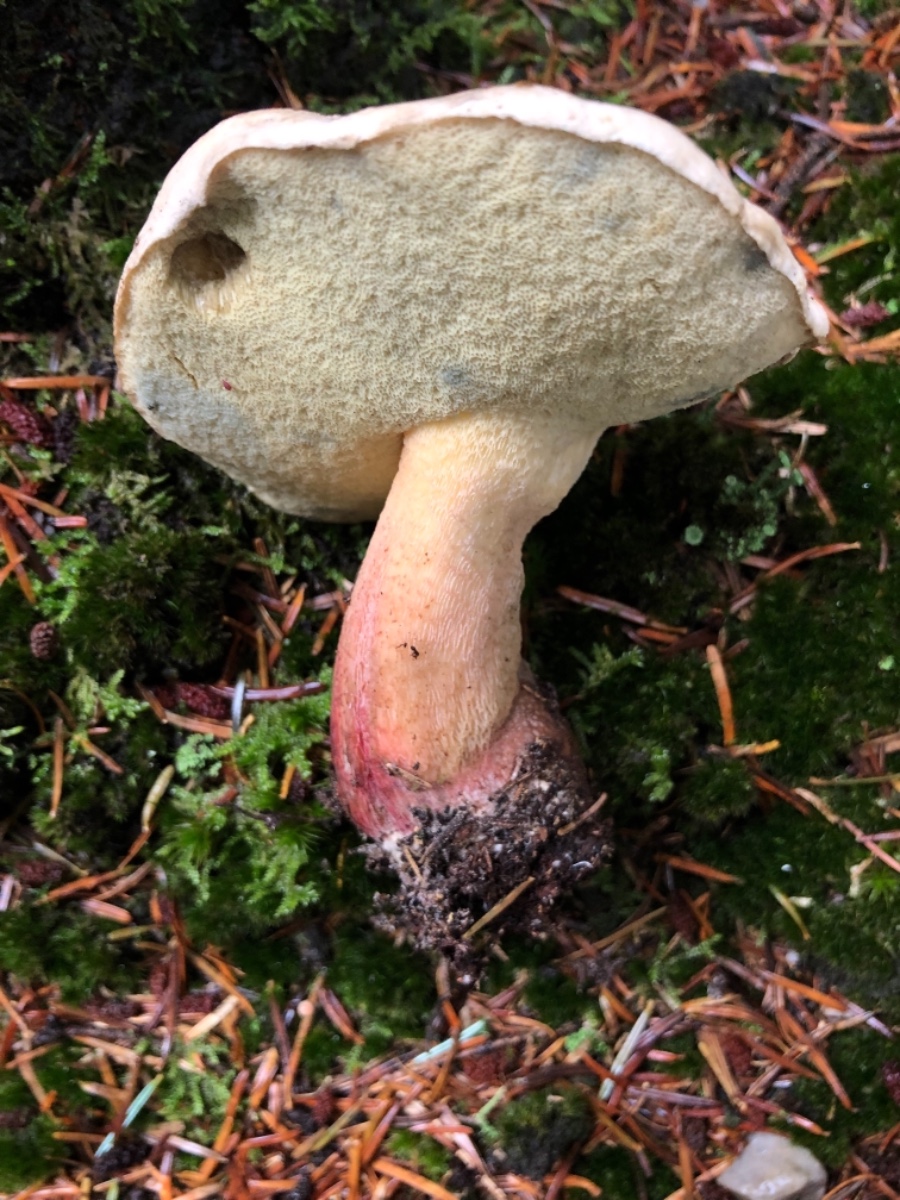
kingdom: Fungi
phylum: Basidiomycota
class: Agaricomycetes
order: Boletales
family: Boletaceae
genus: Caloboletus
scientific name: Caloboletus calopus
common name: skønfodet rørhat
